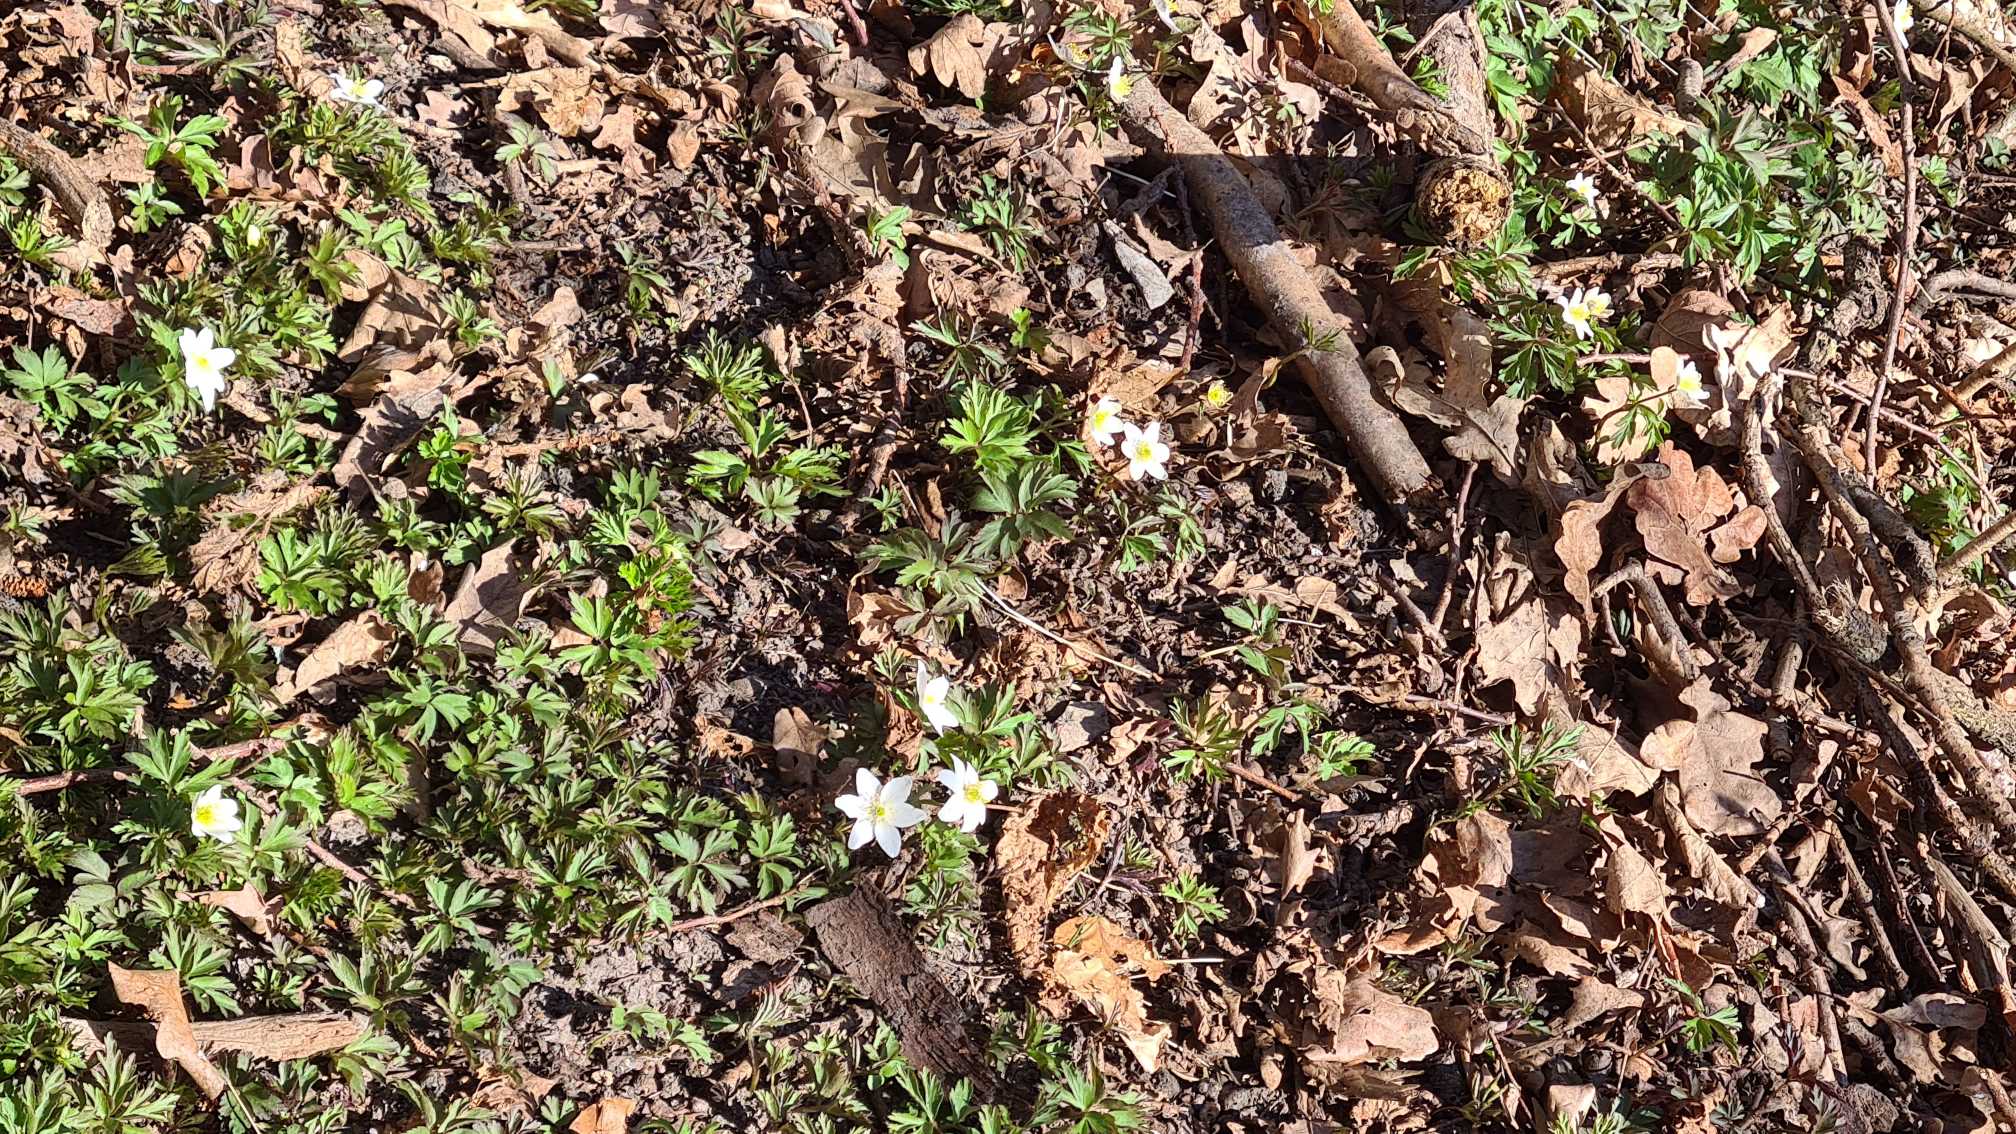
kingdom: Plantae
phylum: Tracheophyta
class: Magnoliopsida
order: Ranunculales
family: Ranunculaceae
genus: Anemone
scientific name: Anemone nemorosa
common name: Hvid anemone
